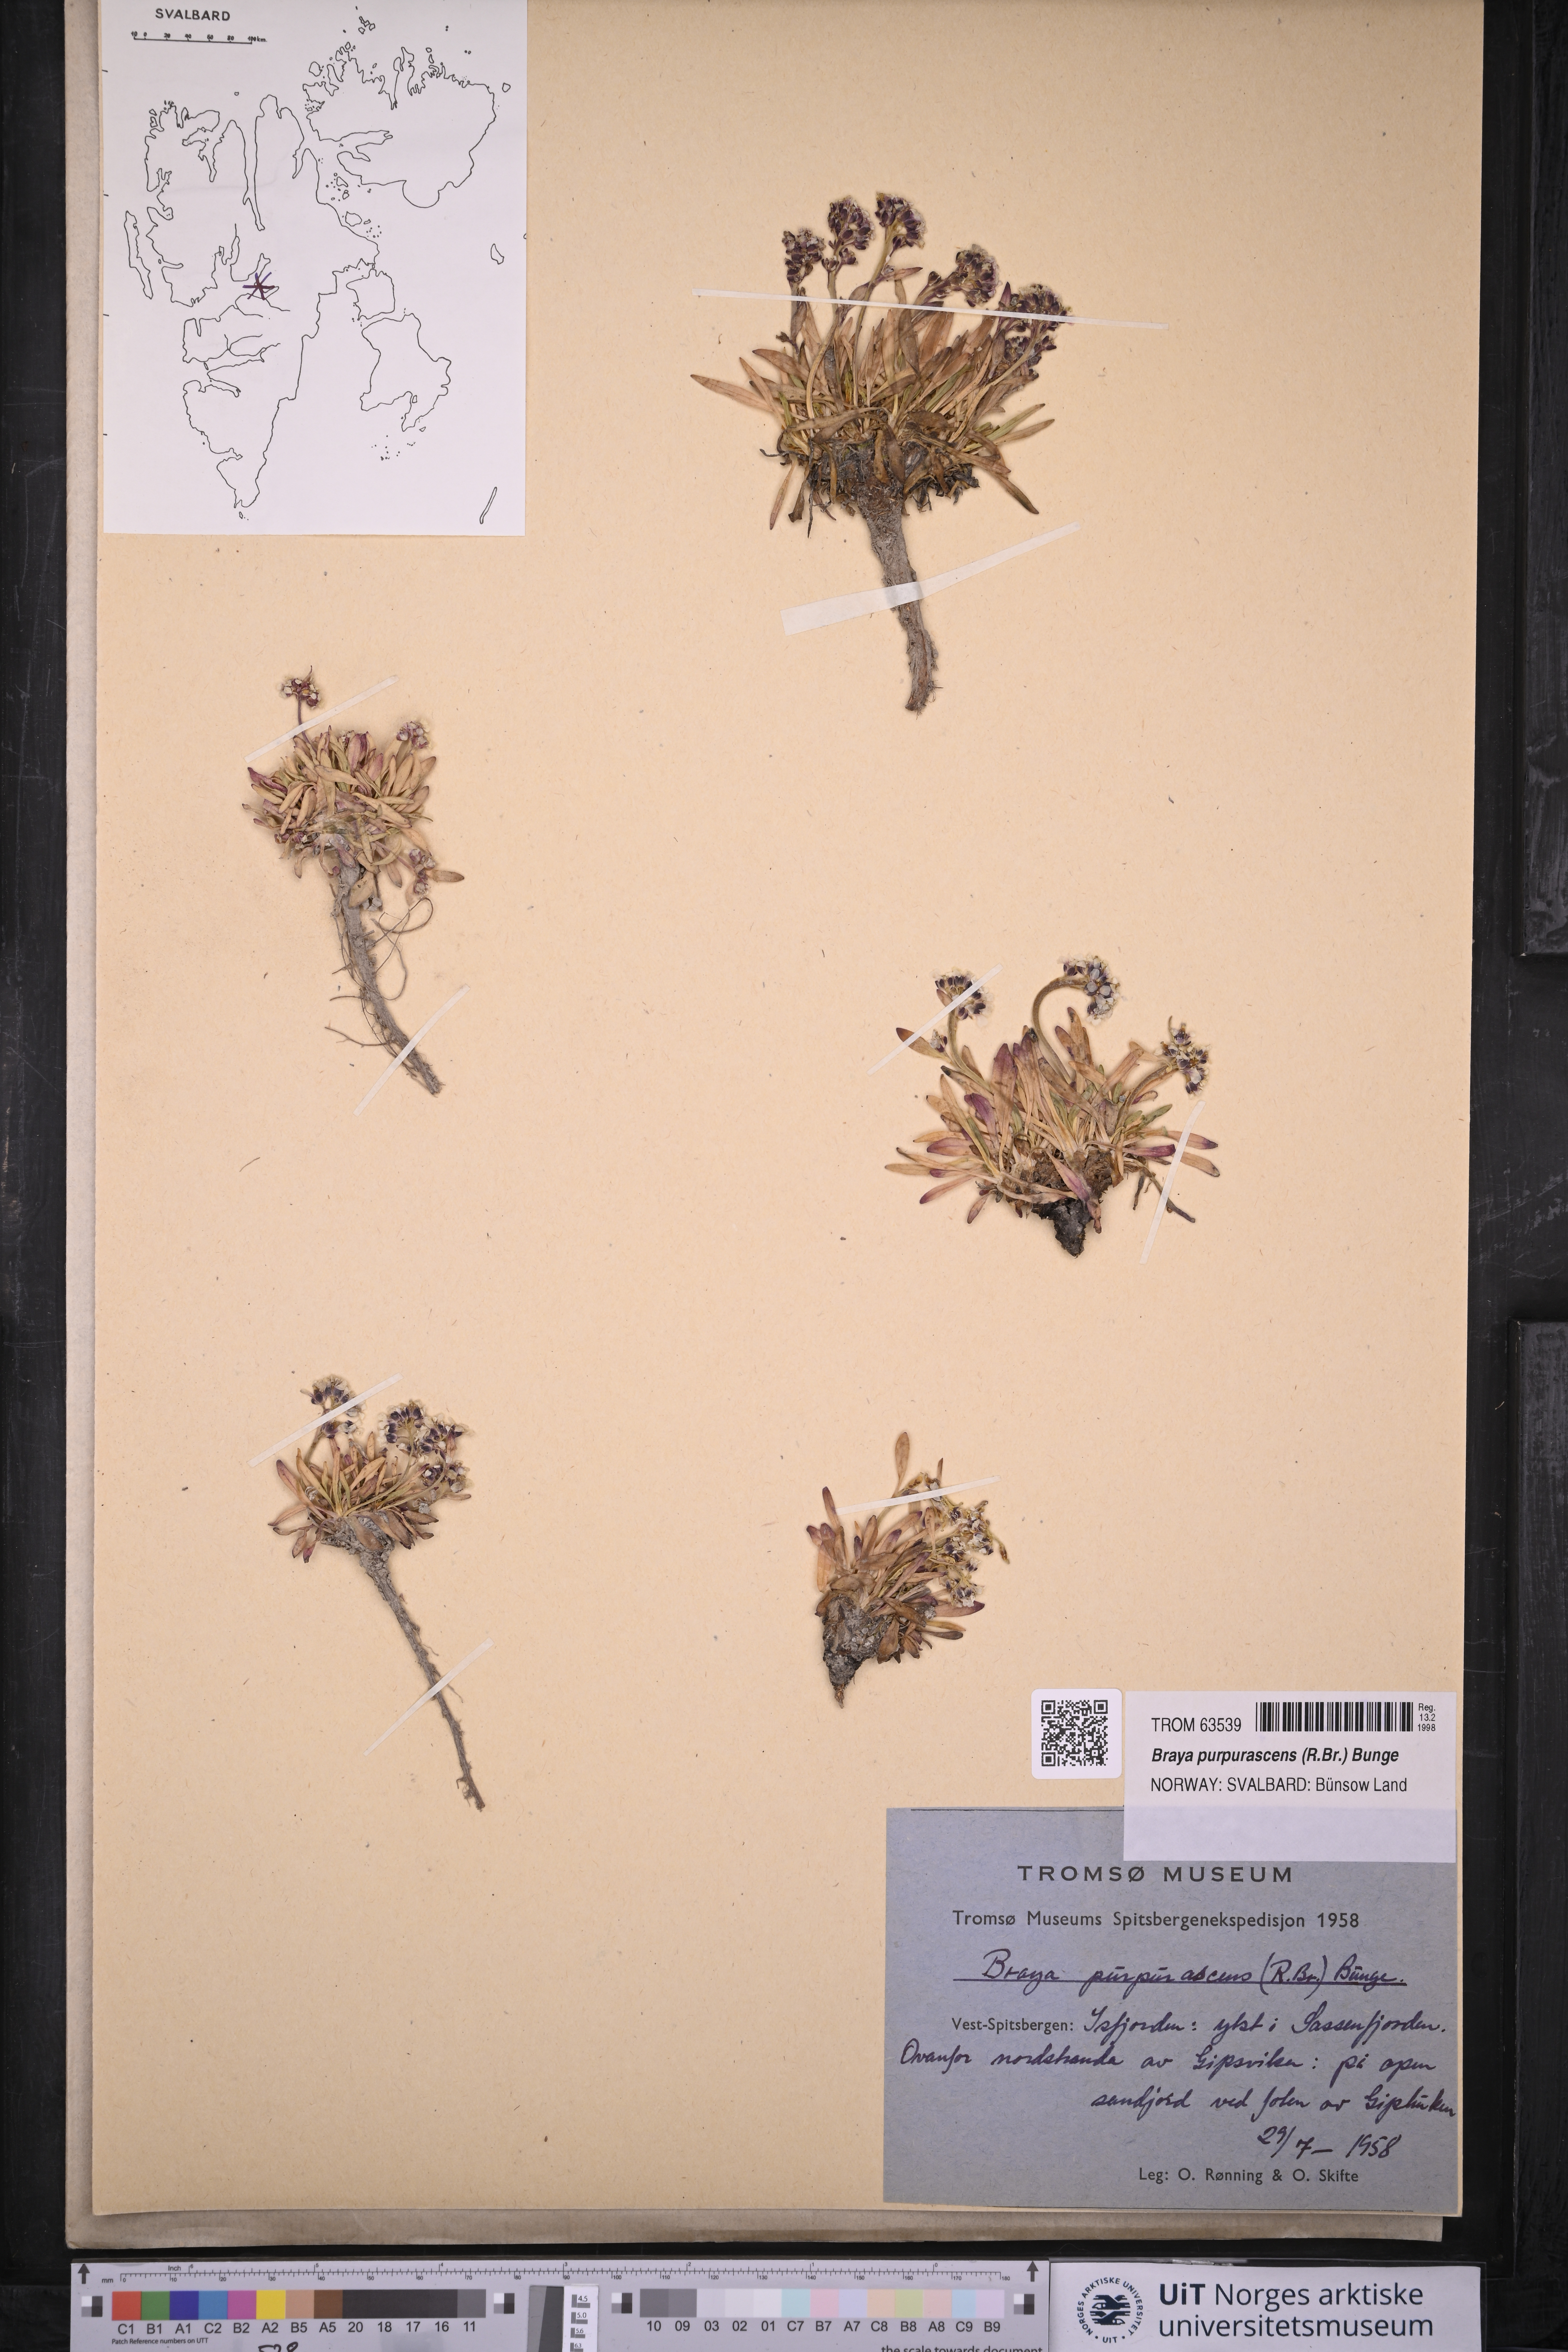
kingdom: Plantae
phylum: Tracheophyta
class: Magnoliopsida
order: Brassicales
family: Brassicaceae
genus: Braya
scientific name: Braya purpurascens
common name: Alpine braya
